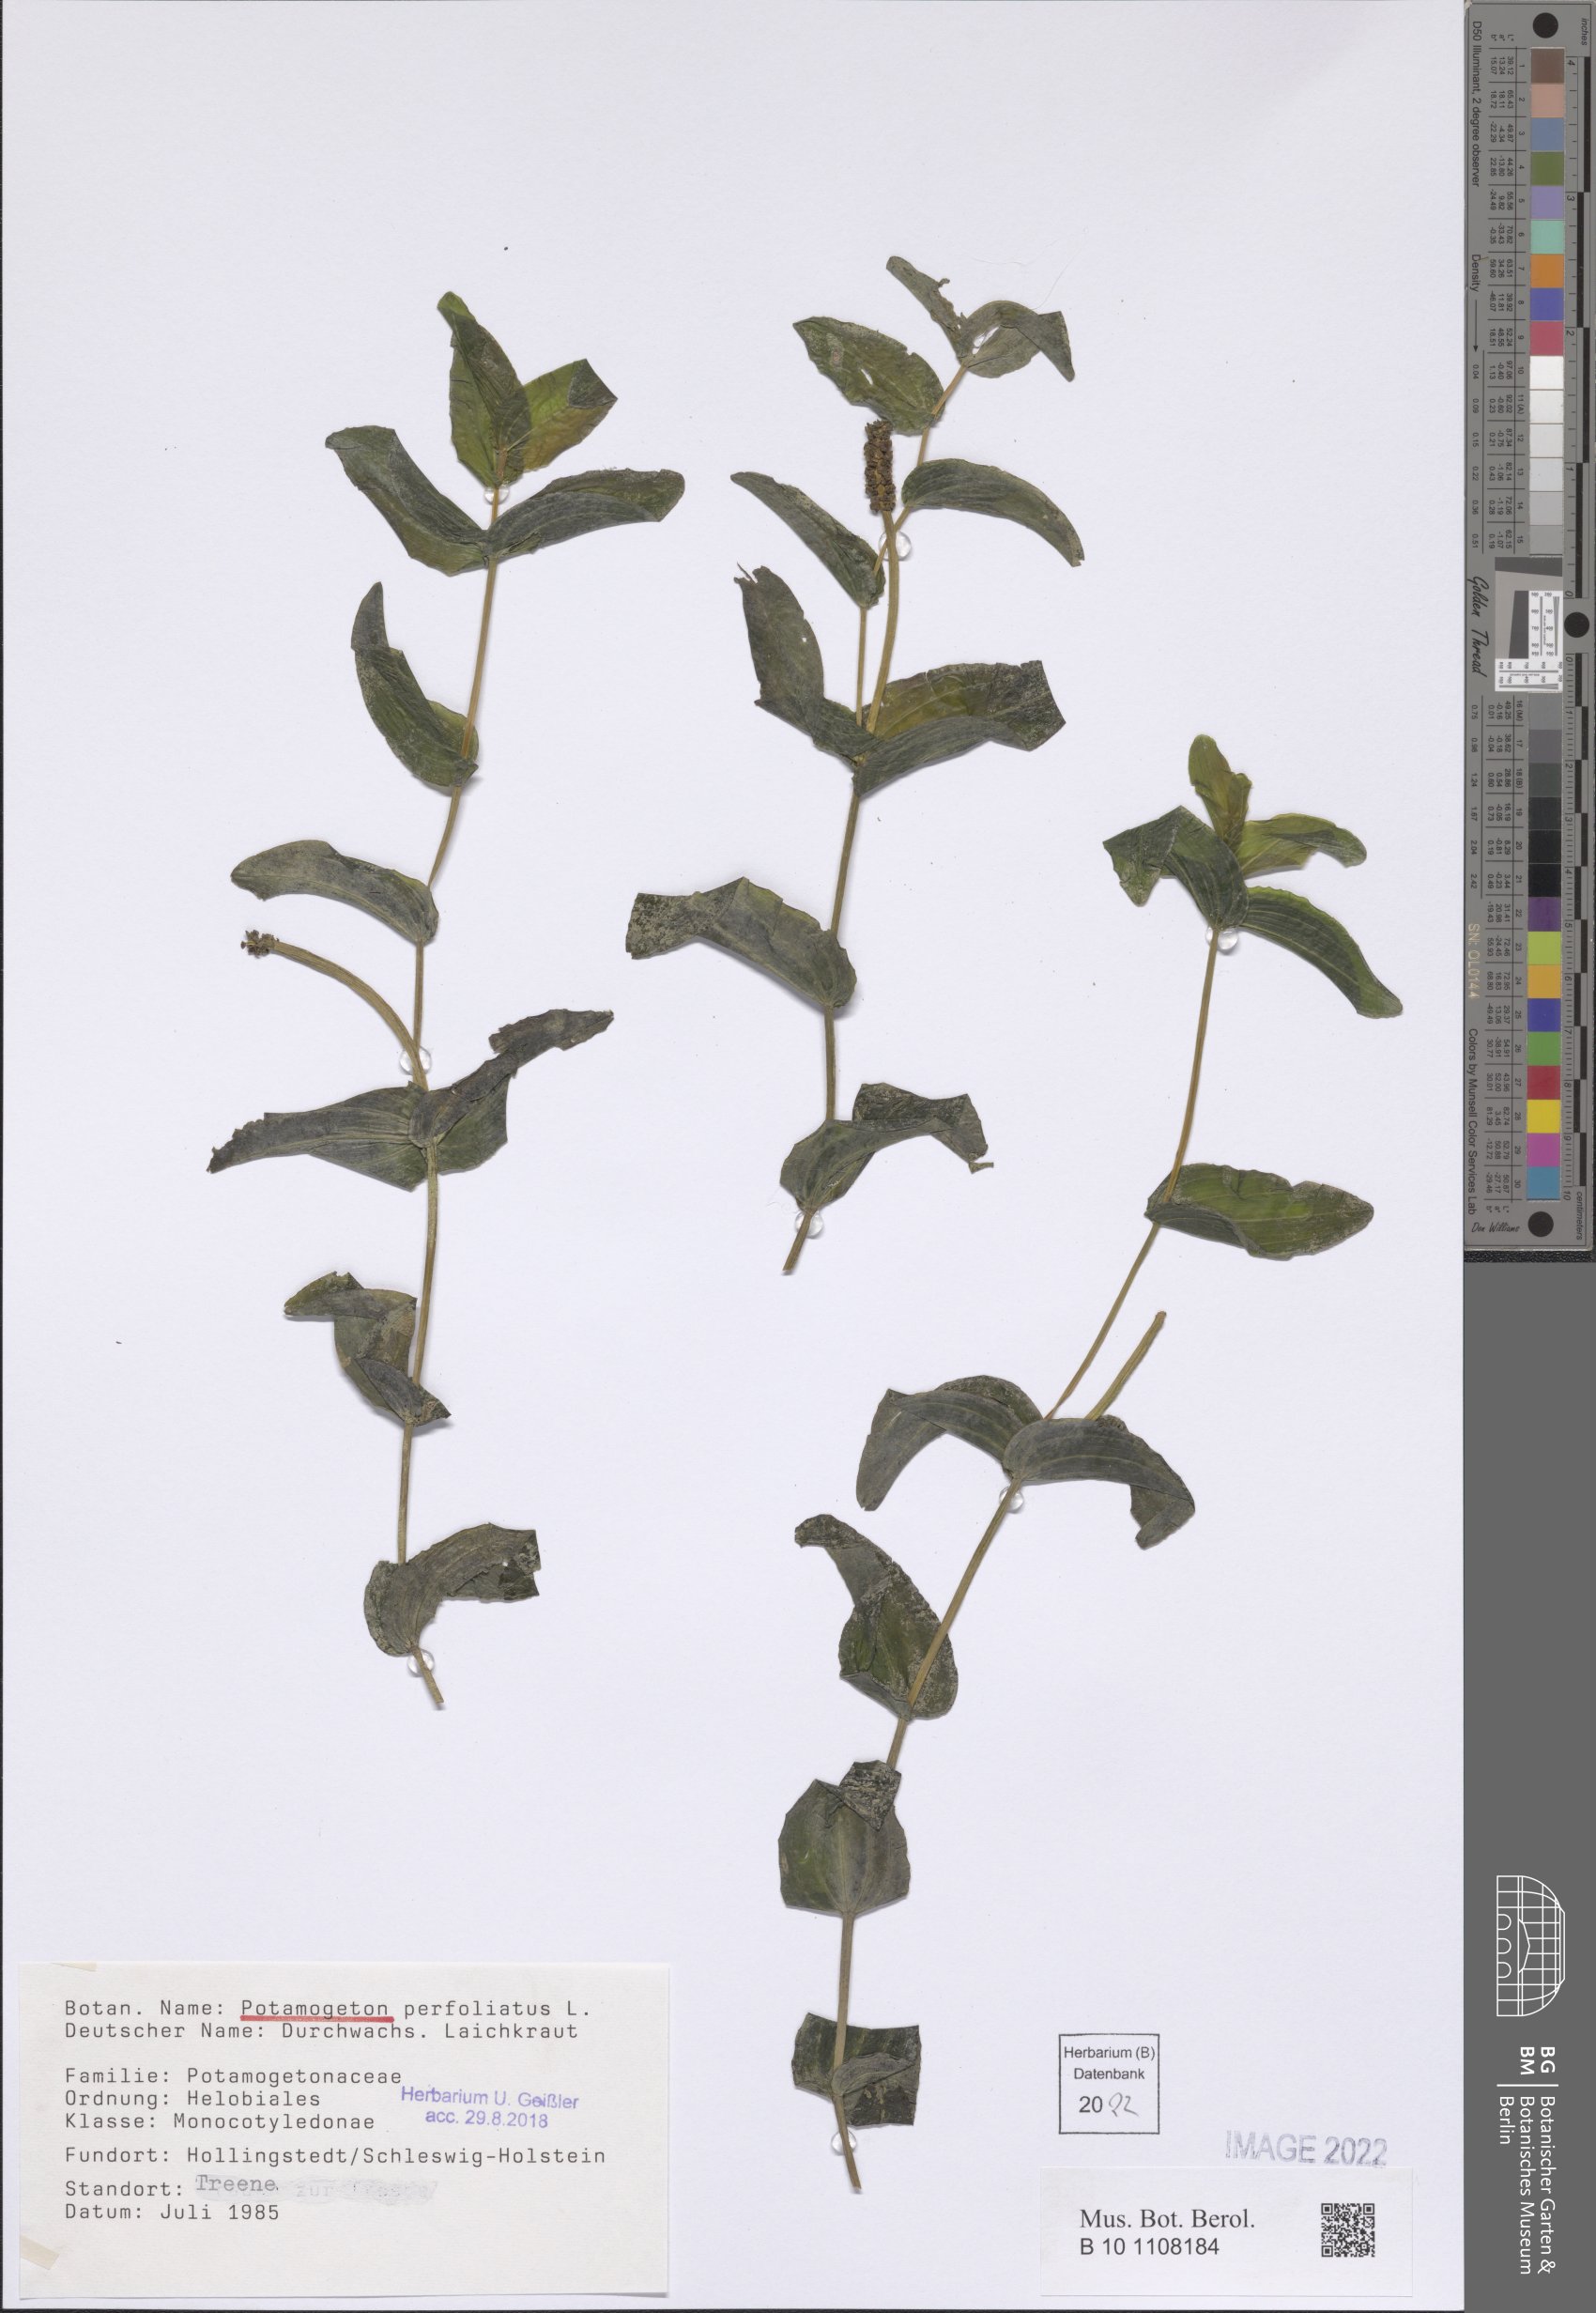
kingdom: Plantae
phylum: Tracheophyta
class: Liliopsida
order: Alismatales
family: Potamogetonaceae
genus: Potamogeton
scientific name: Potamogeton perfoliatus
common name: Perfoliate pondweed
